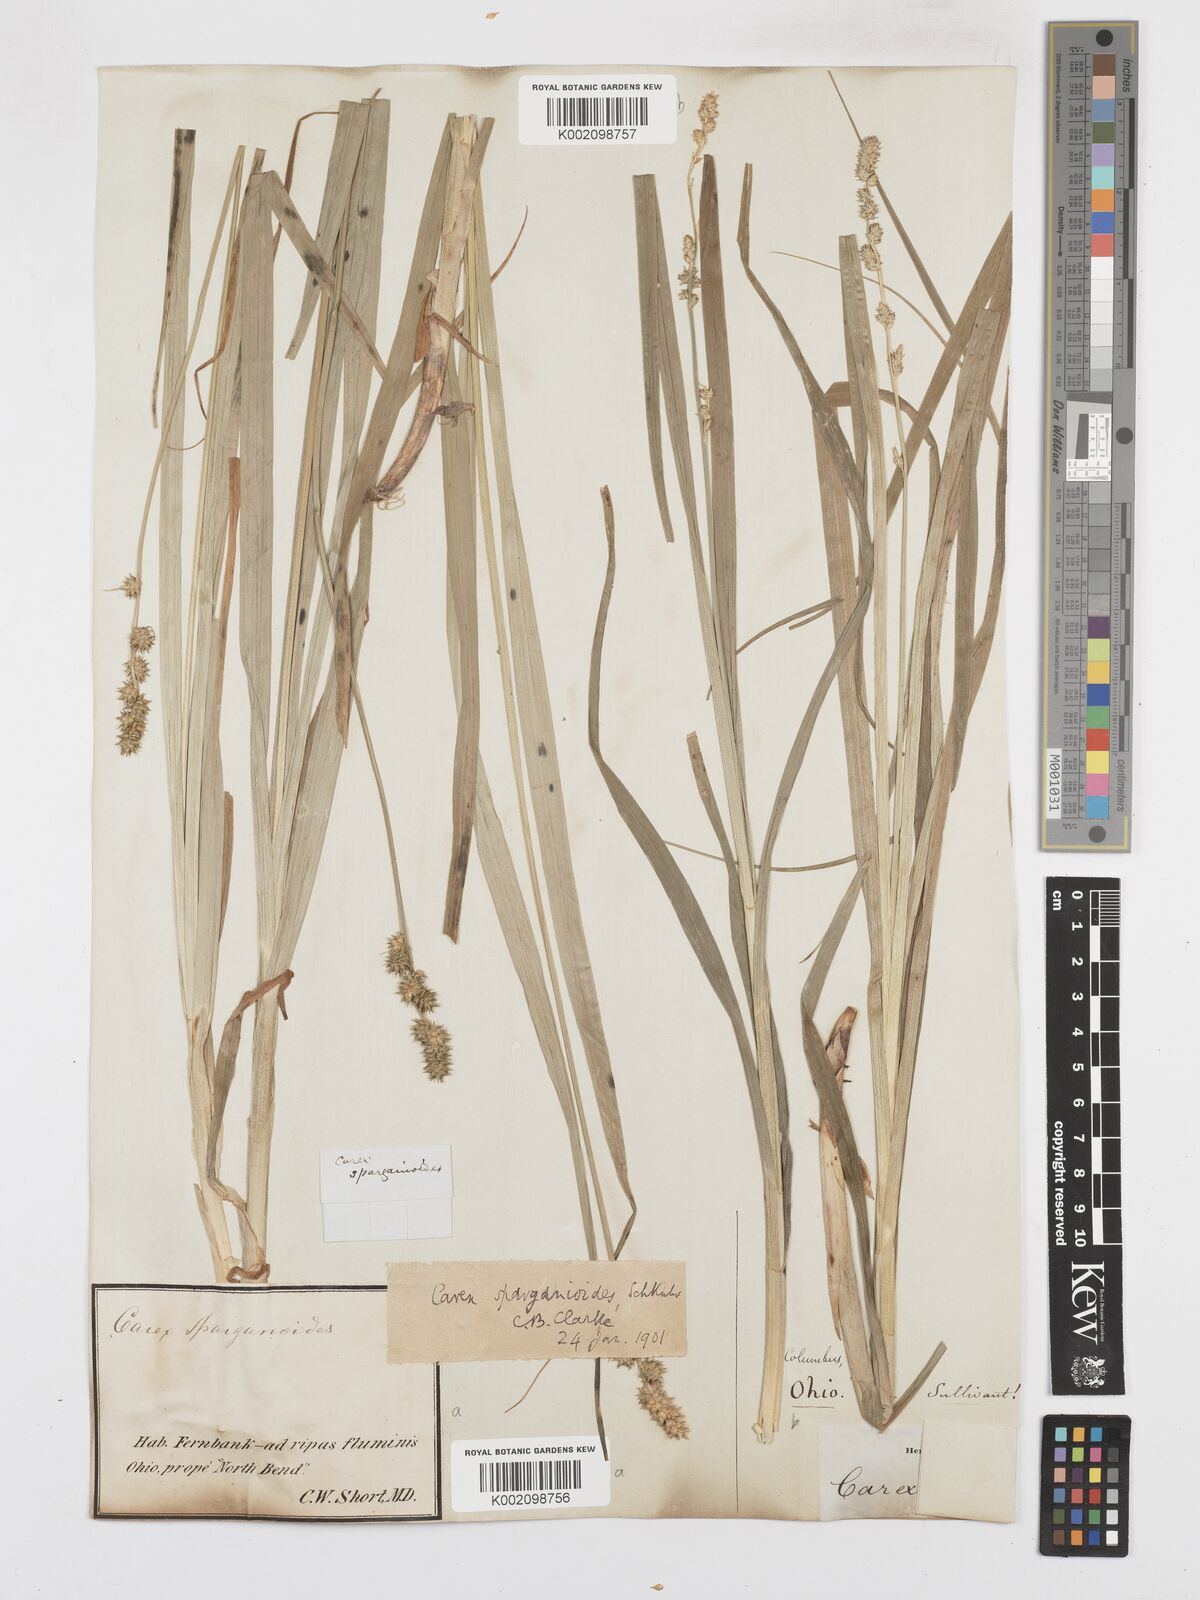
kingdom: Plantae
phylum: Tracheophyta
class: Liliopsida
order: Poales
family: Cyperaceae
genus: Carex
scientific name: Carex sparganioides
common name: Burreed sedge
